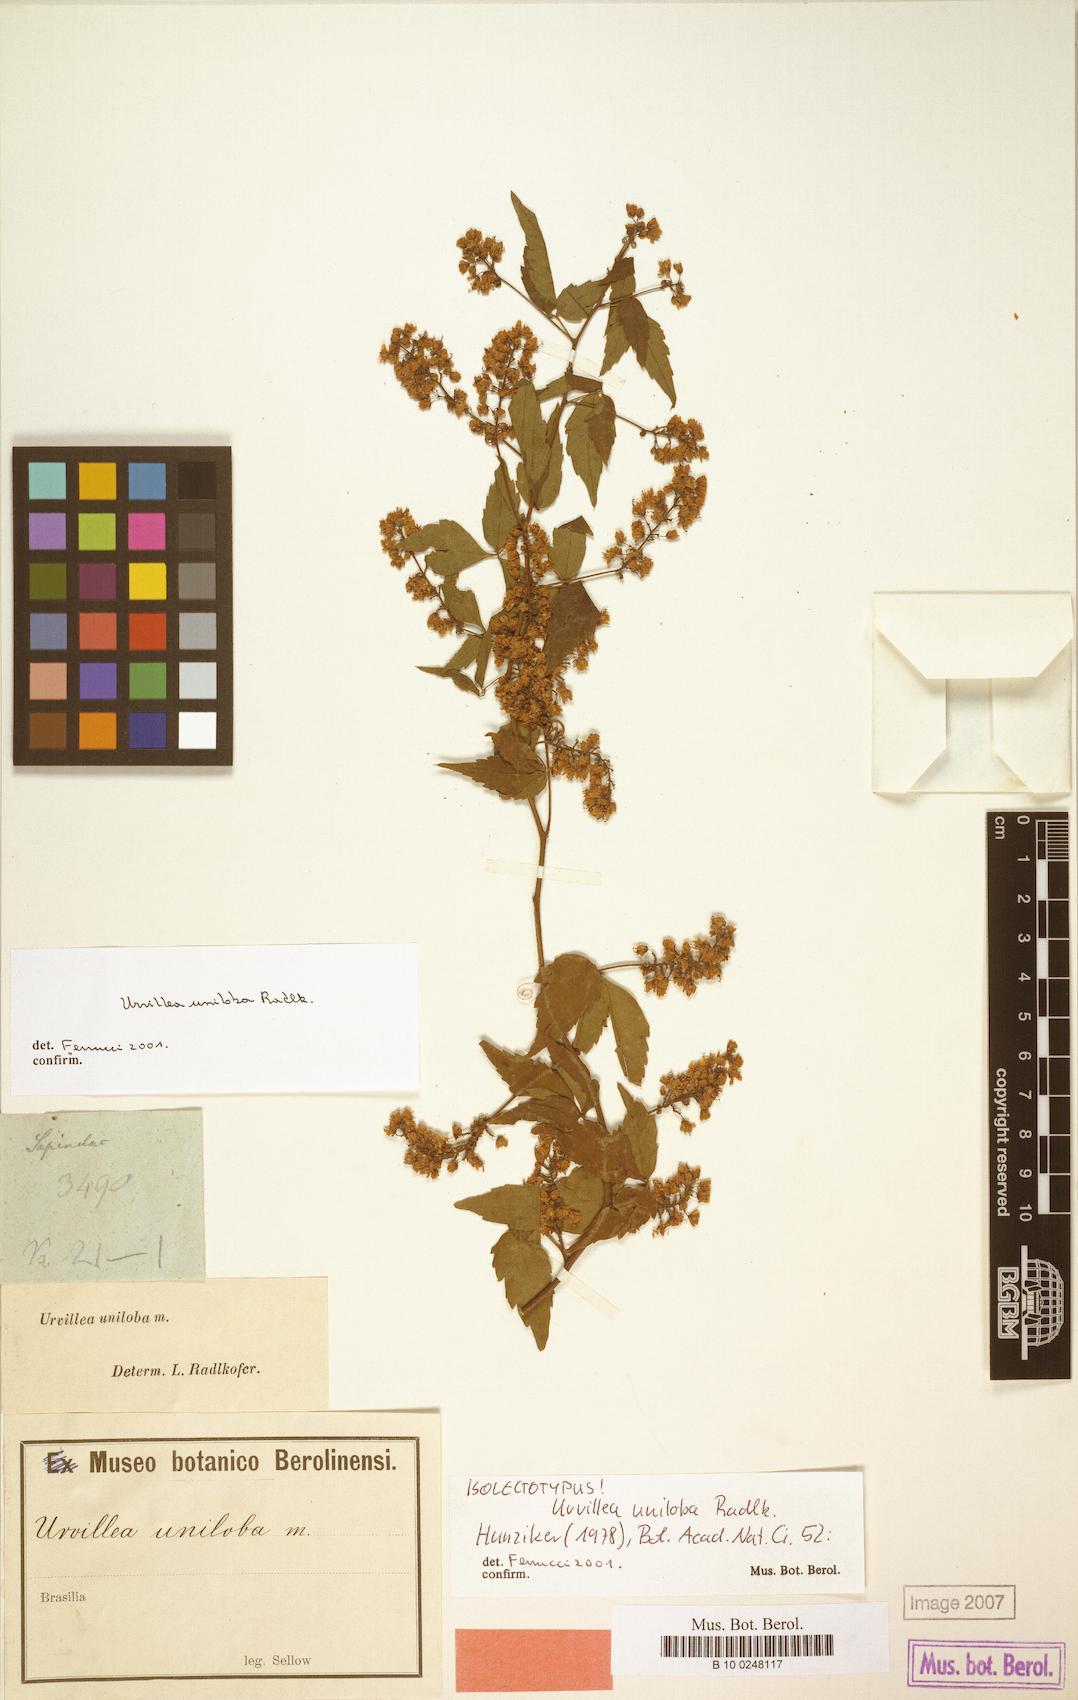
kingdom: Plantae
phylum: Tracheophyta
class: Magnoliopsida
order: Sapindales
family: Sapindaceae
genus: Urvillea
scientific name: Urvillea uniloba
